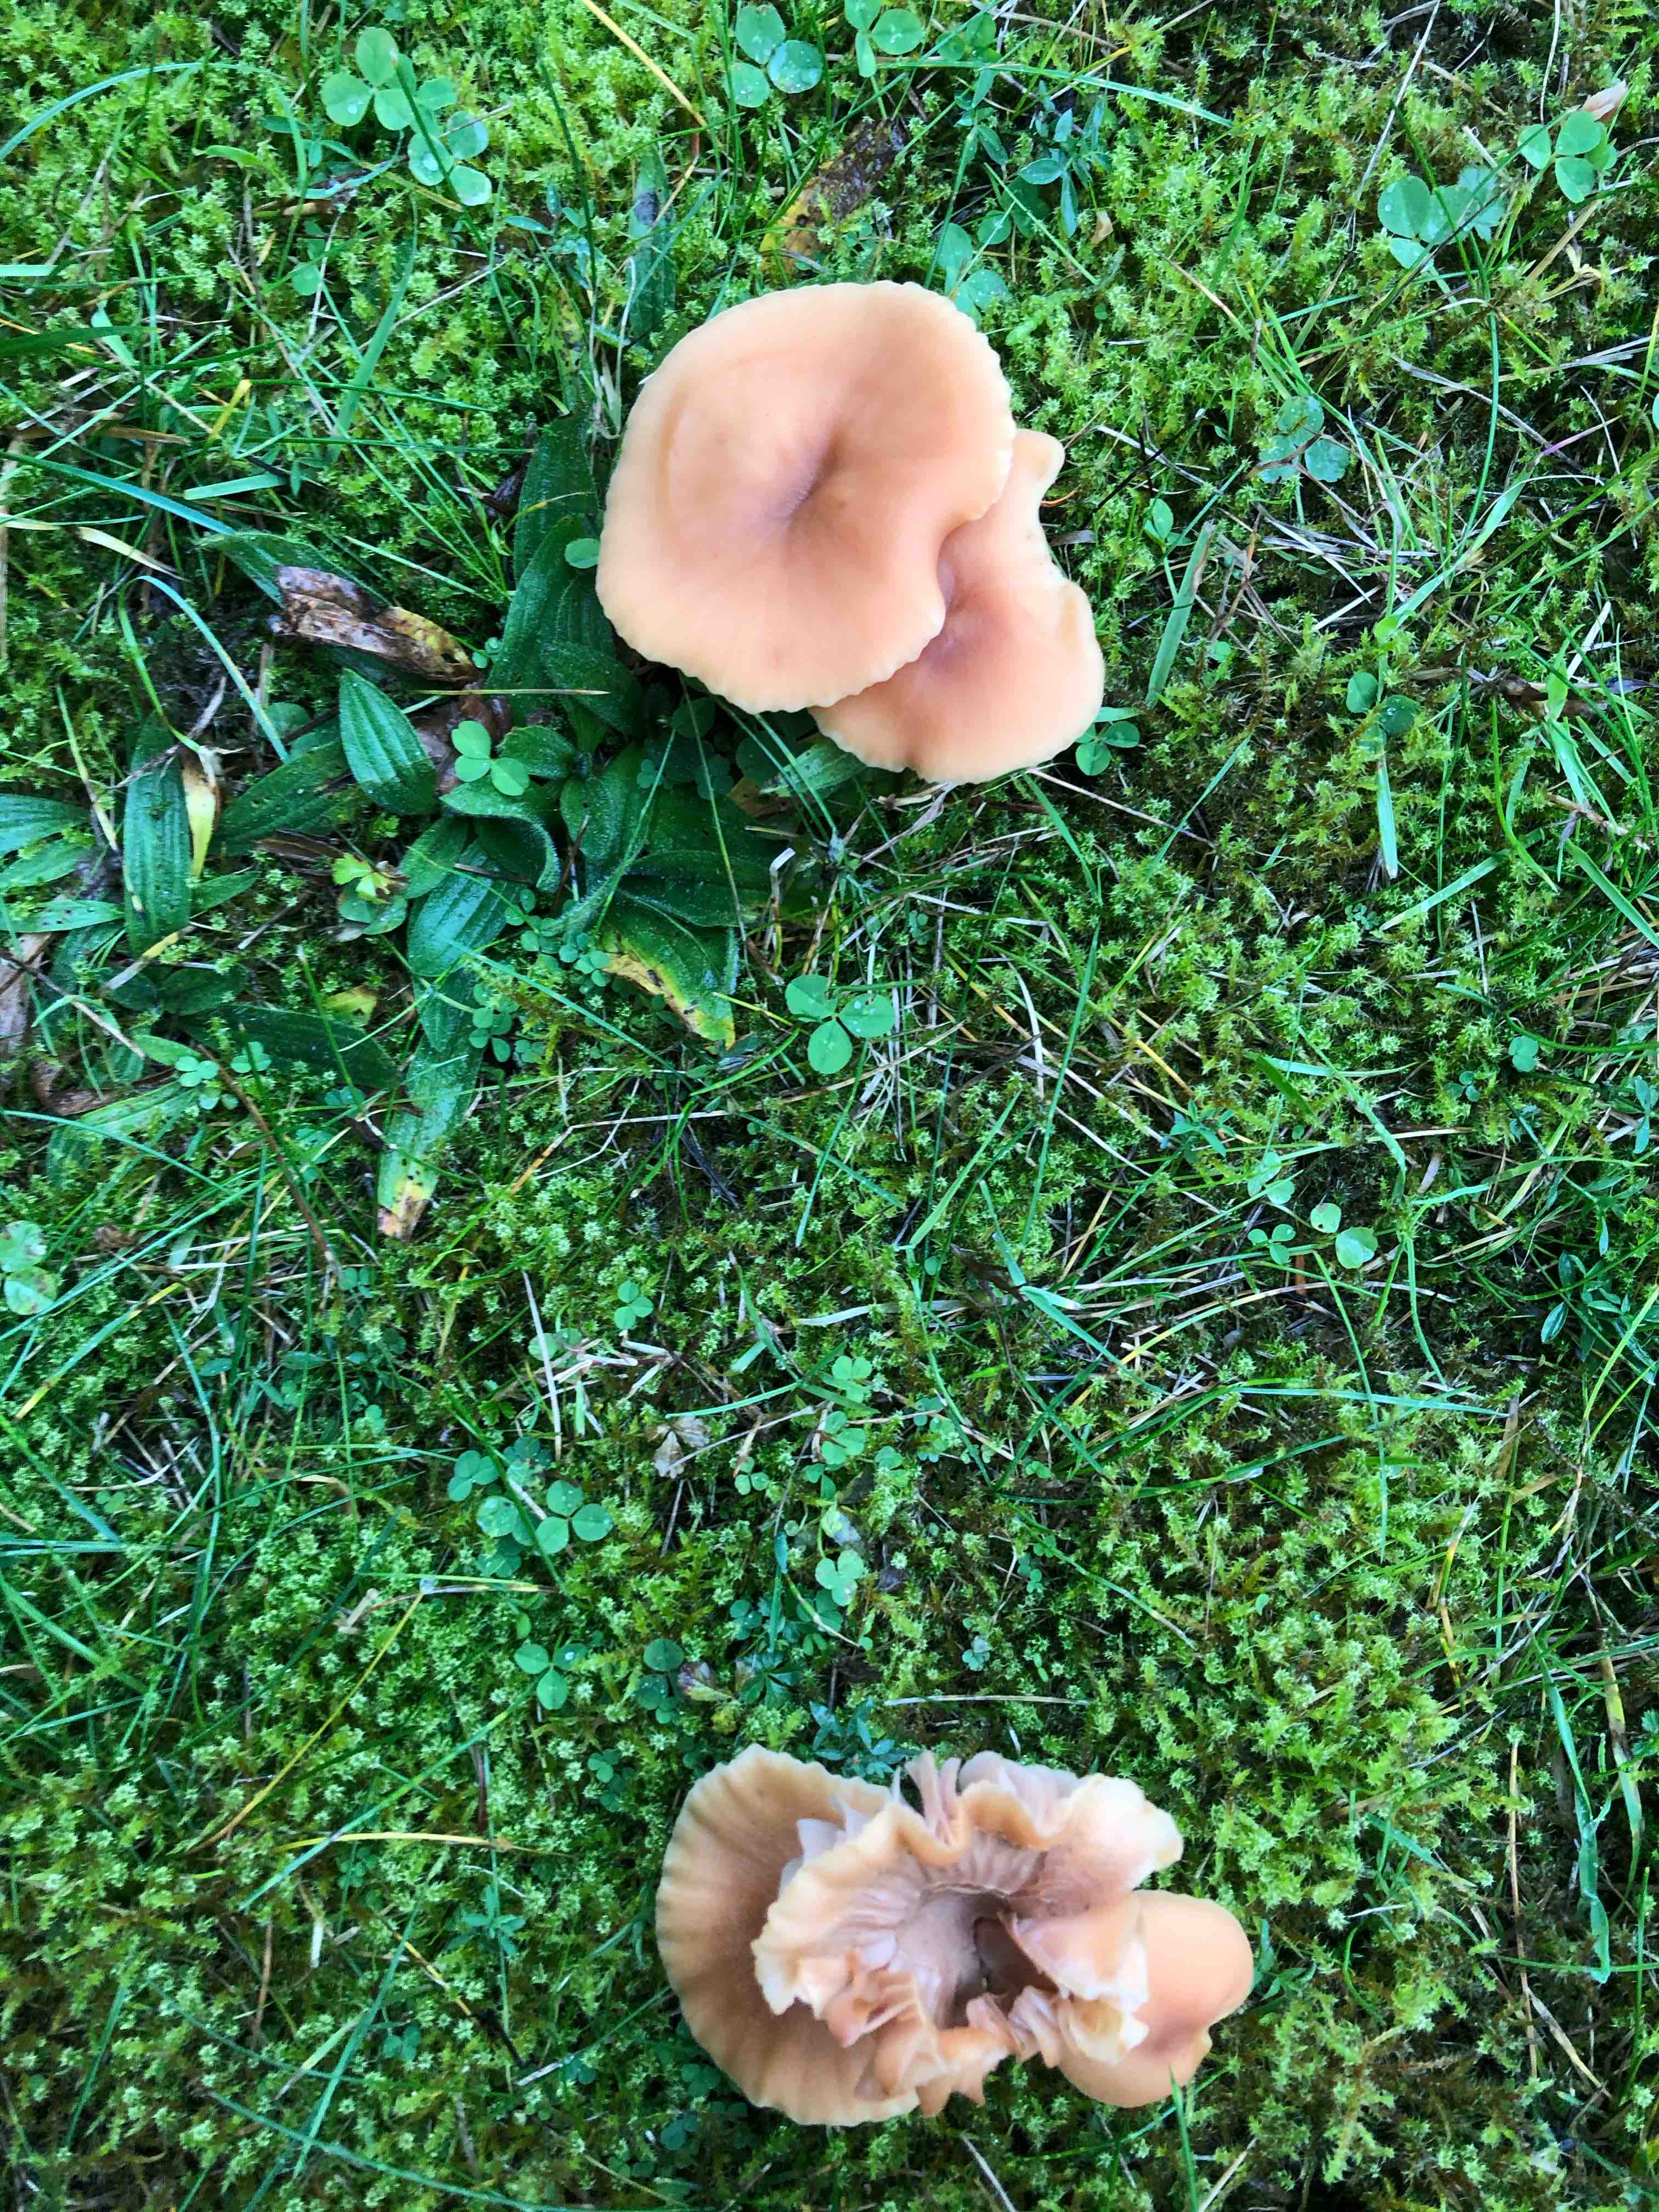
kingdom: Fungi
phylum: Basidiomycota
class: Agaricomycetes
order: Agaricales
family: Hydnangiaceae
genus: Laccaria
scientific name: Laccaria bicolor
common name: tvefarvet ametysthat
